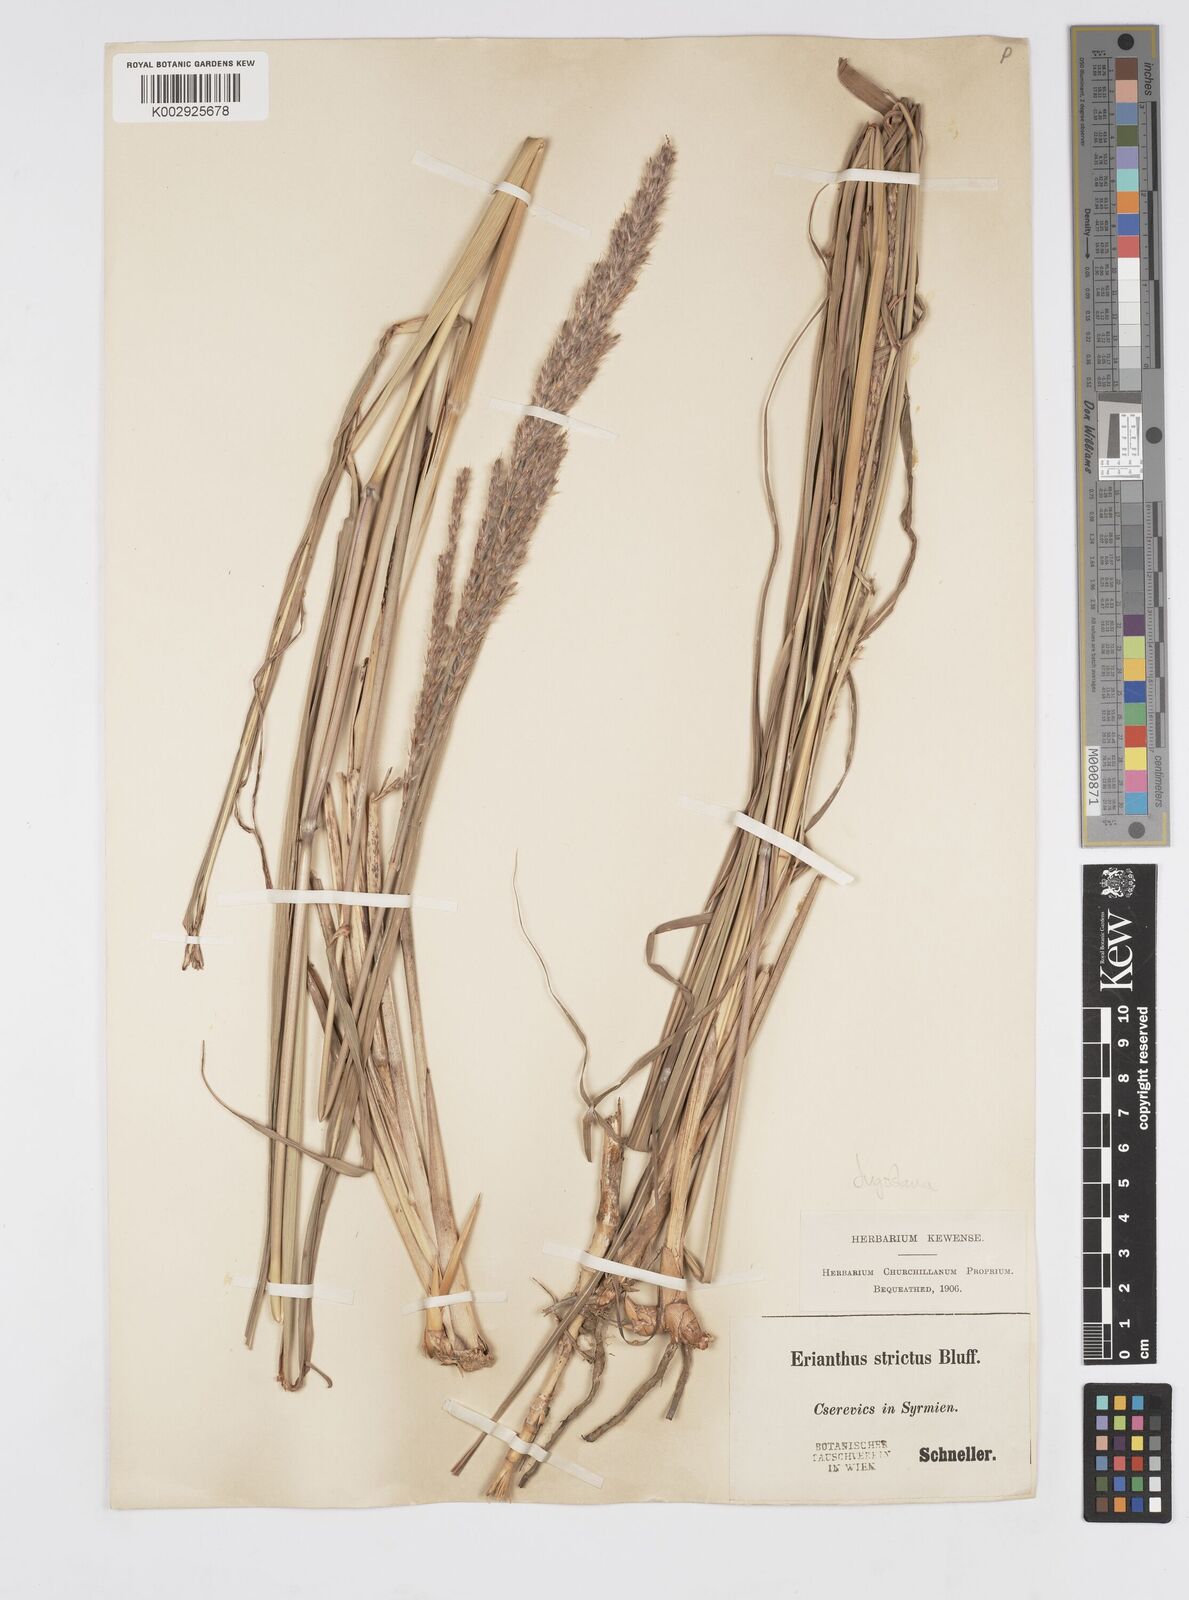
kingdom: Plantae
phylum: Tracheophyta
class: Liliopsida
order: Poales
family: Poaceae
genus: Tripidium
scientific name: Tripidium strictum
